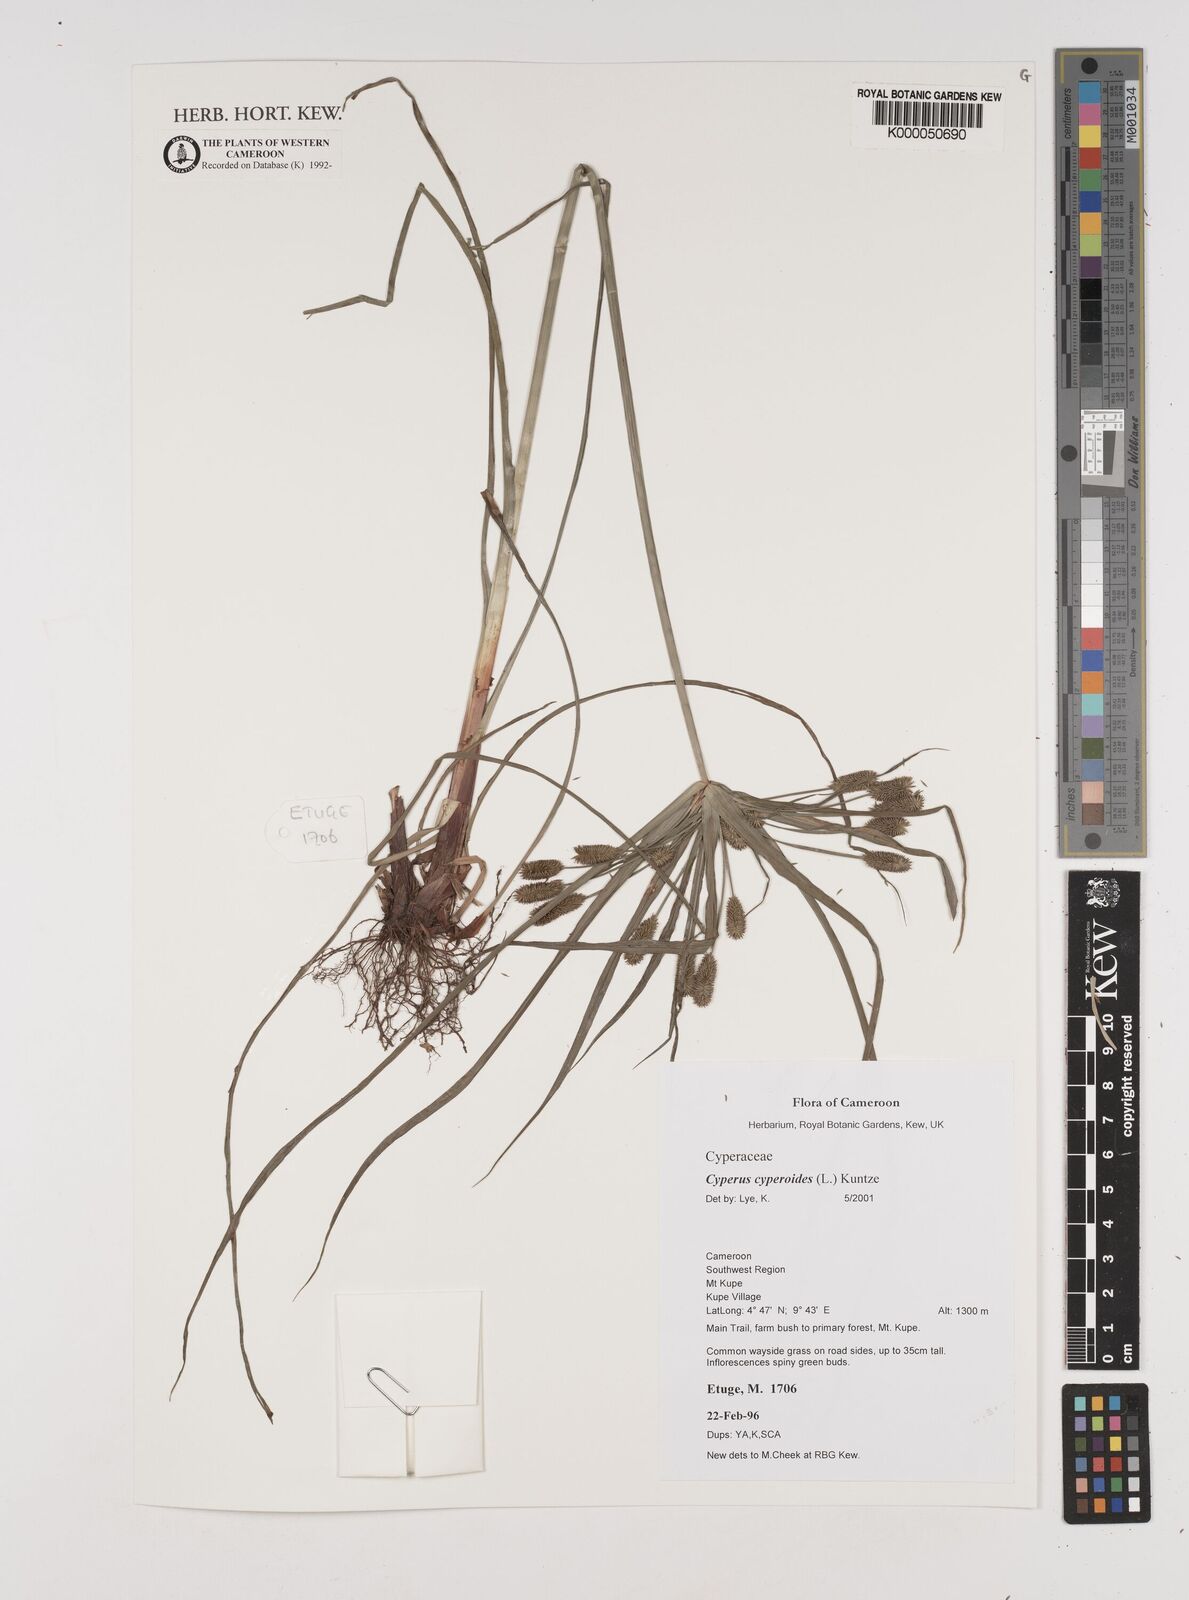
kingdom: Plantae
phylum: Tracheophyta
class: Liliopsida
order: Poales
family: Cyperaceae
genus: Cyperus
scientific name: Cyperus cyperoides
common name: Pacific island flat sedge
